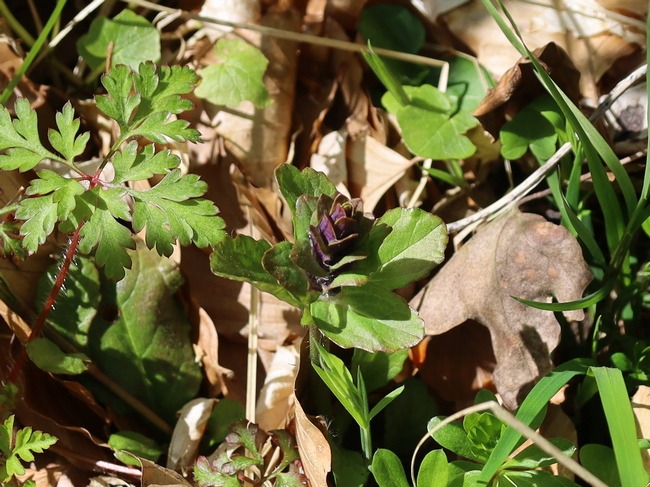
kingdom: Plantae
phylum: Tracheophyta
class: Magnoliopsida
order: Lamiales
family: Lamiaceae
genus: Ajuga
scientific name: Ajuga reptans
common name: Krybende læbeløs
